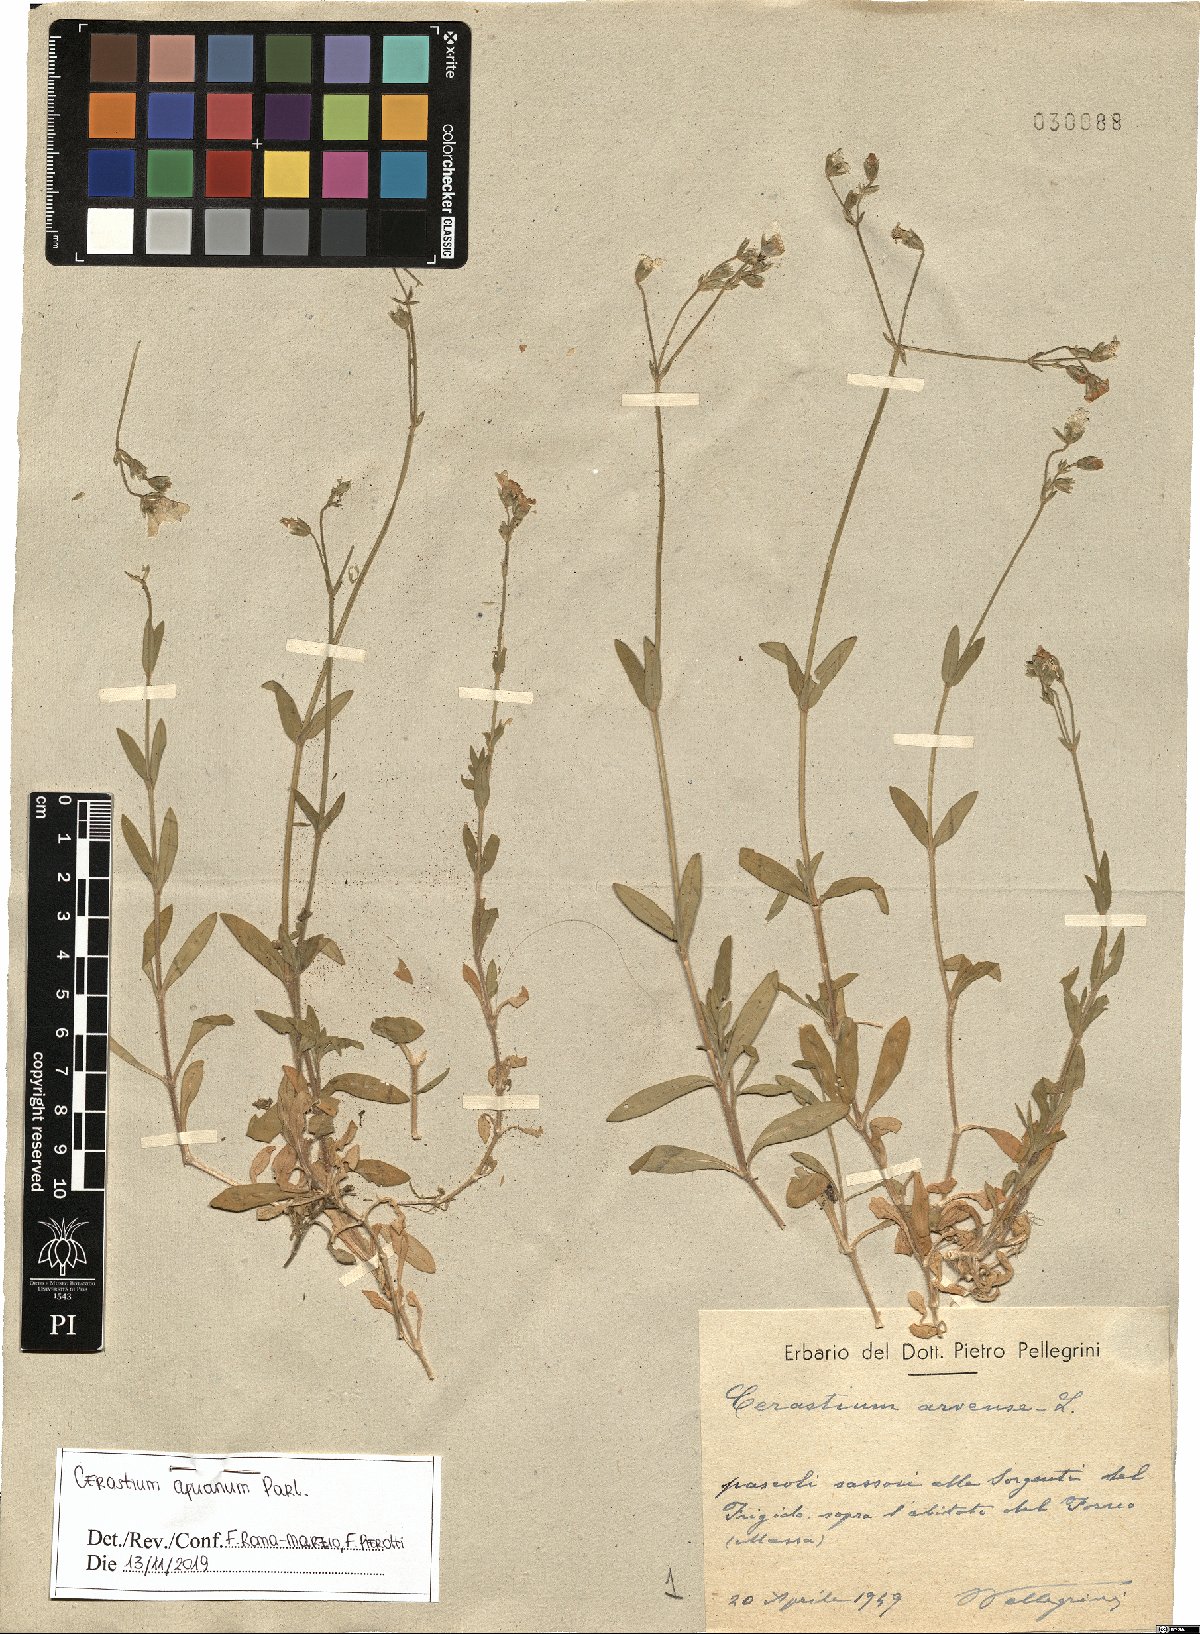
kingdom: Plantae
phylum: Tracheophyta
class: Magnoliopsida
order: Caryophyllales
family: Caryophyllaceae
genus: Cerastium
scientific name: Cerastium scaranii
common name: Italian mouse-ear
